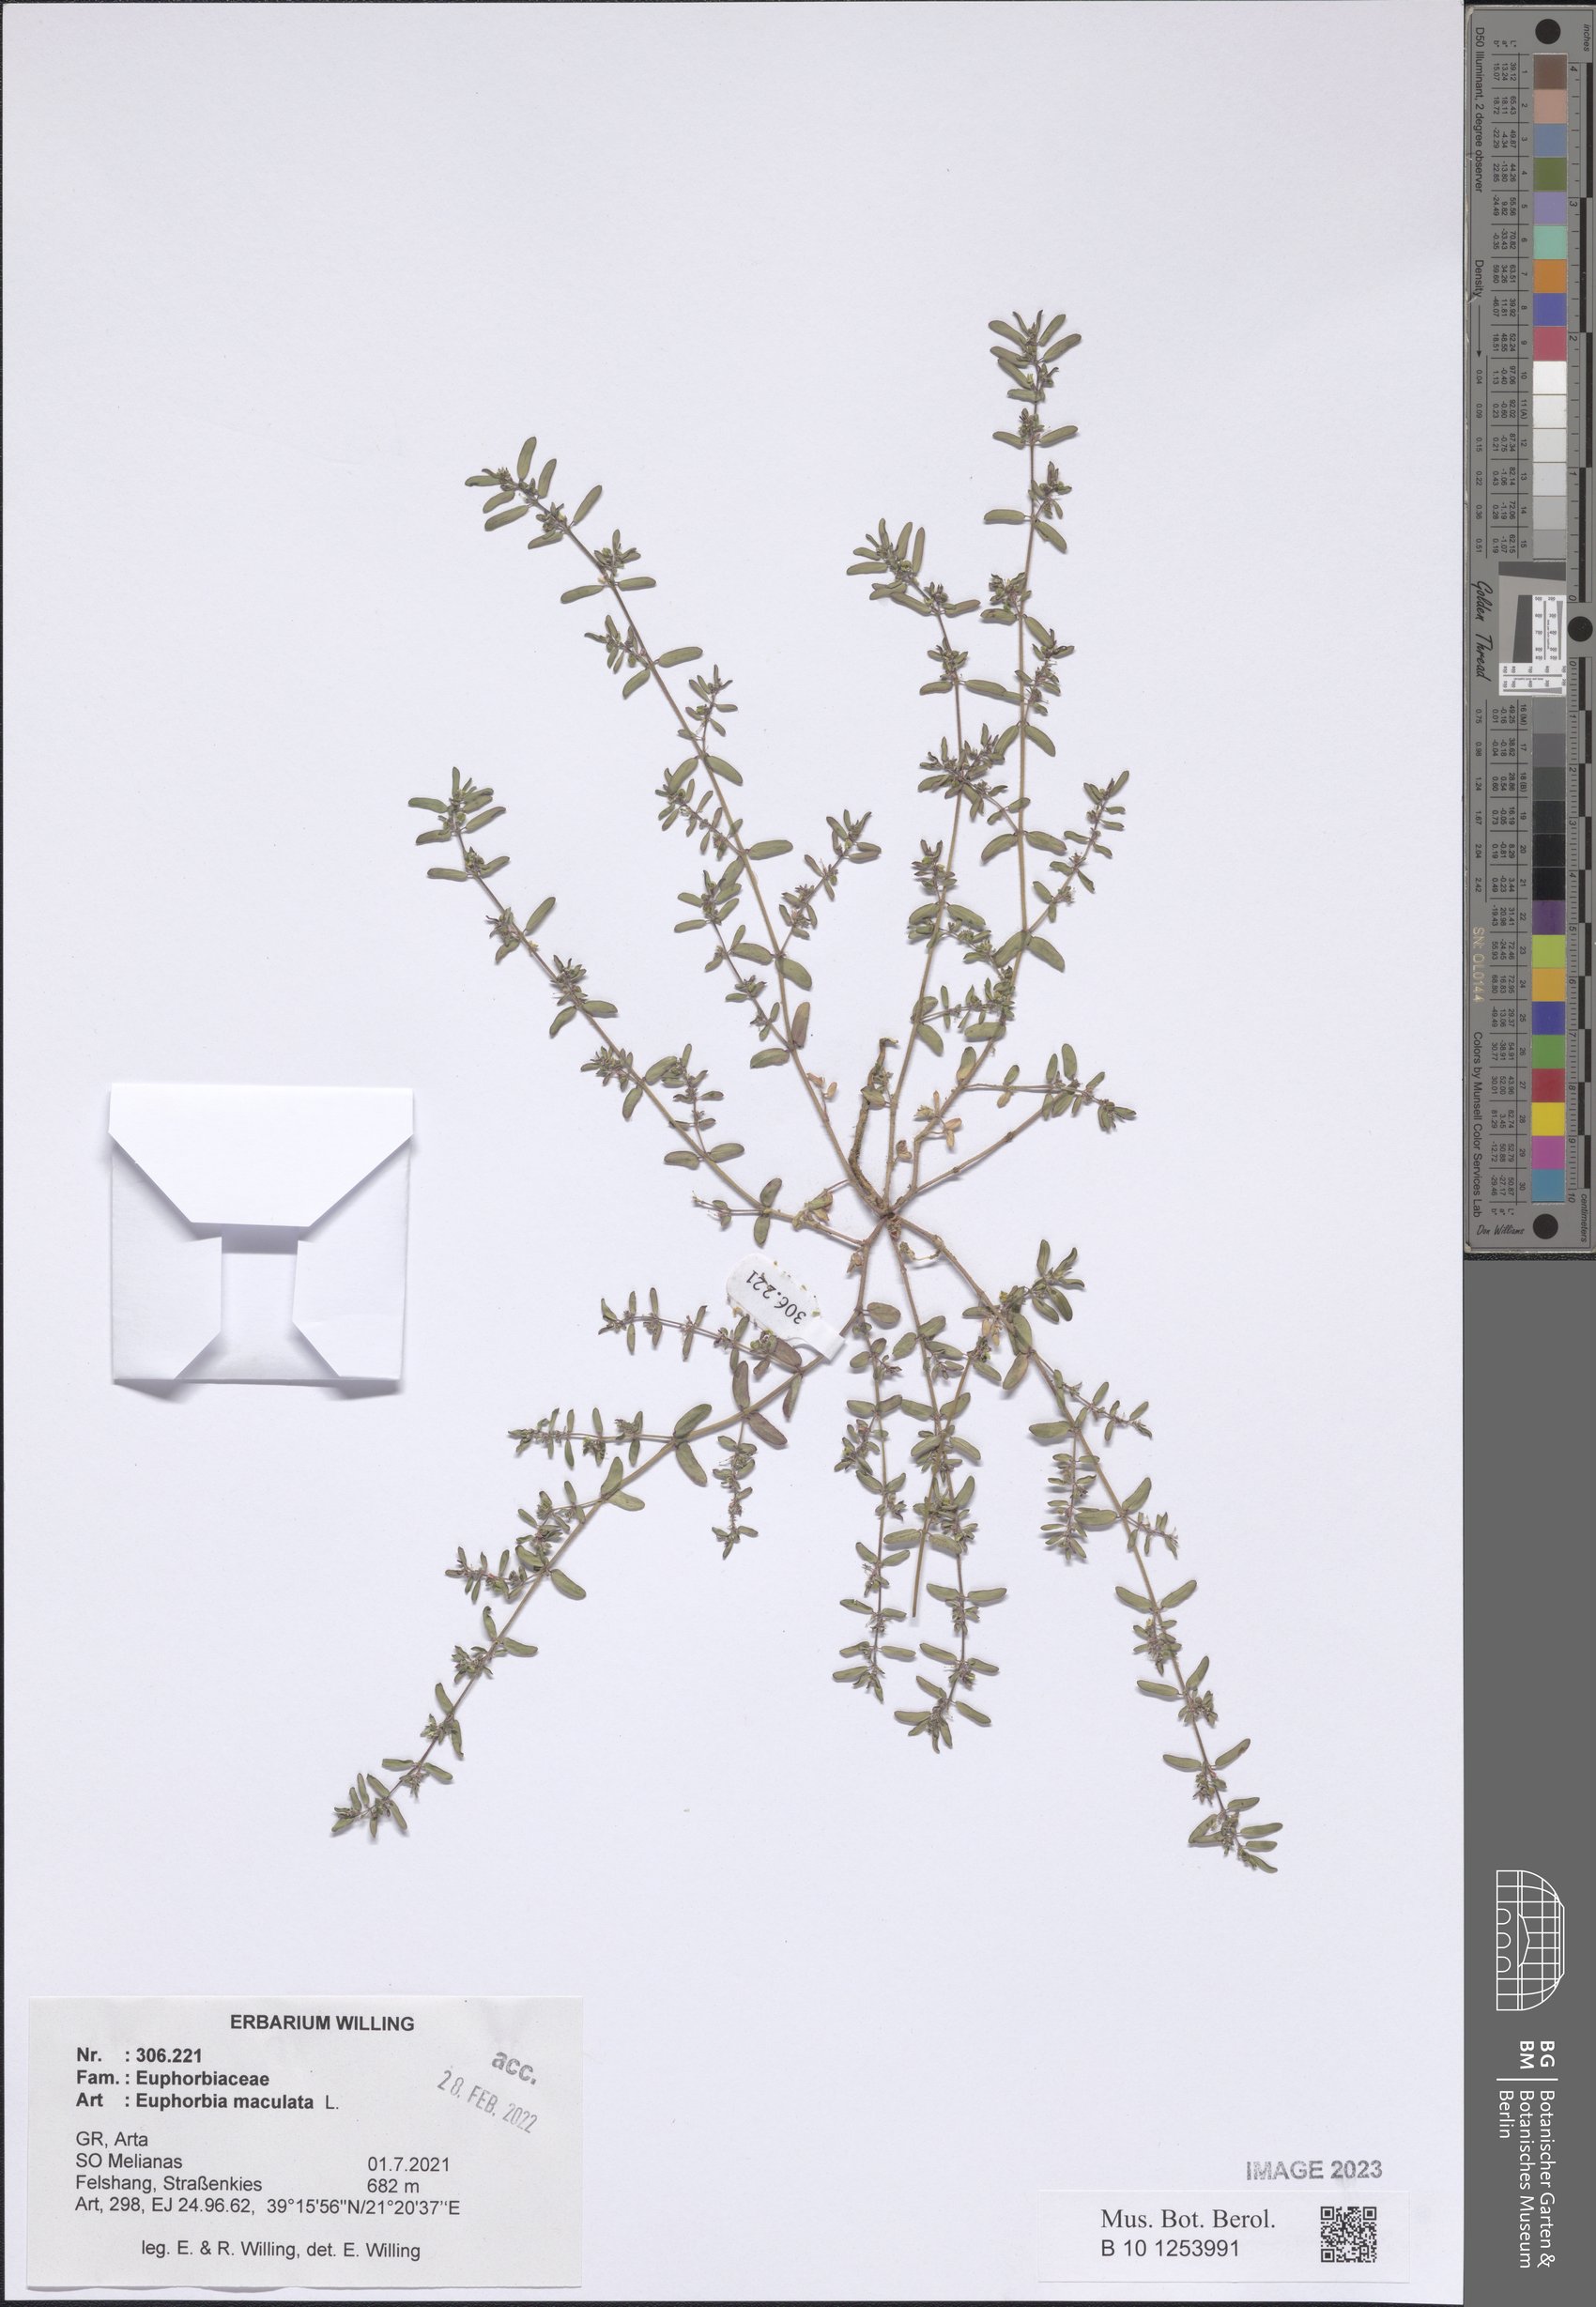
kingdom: Plantae
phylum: Tracheophyta
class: Magnoliopsida
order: Malpighiales
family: Euphorbiaceae
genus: Euphorbia
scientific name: Euphorbia maculata
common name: Spotted spurge
